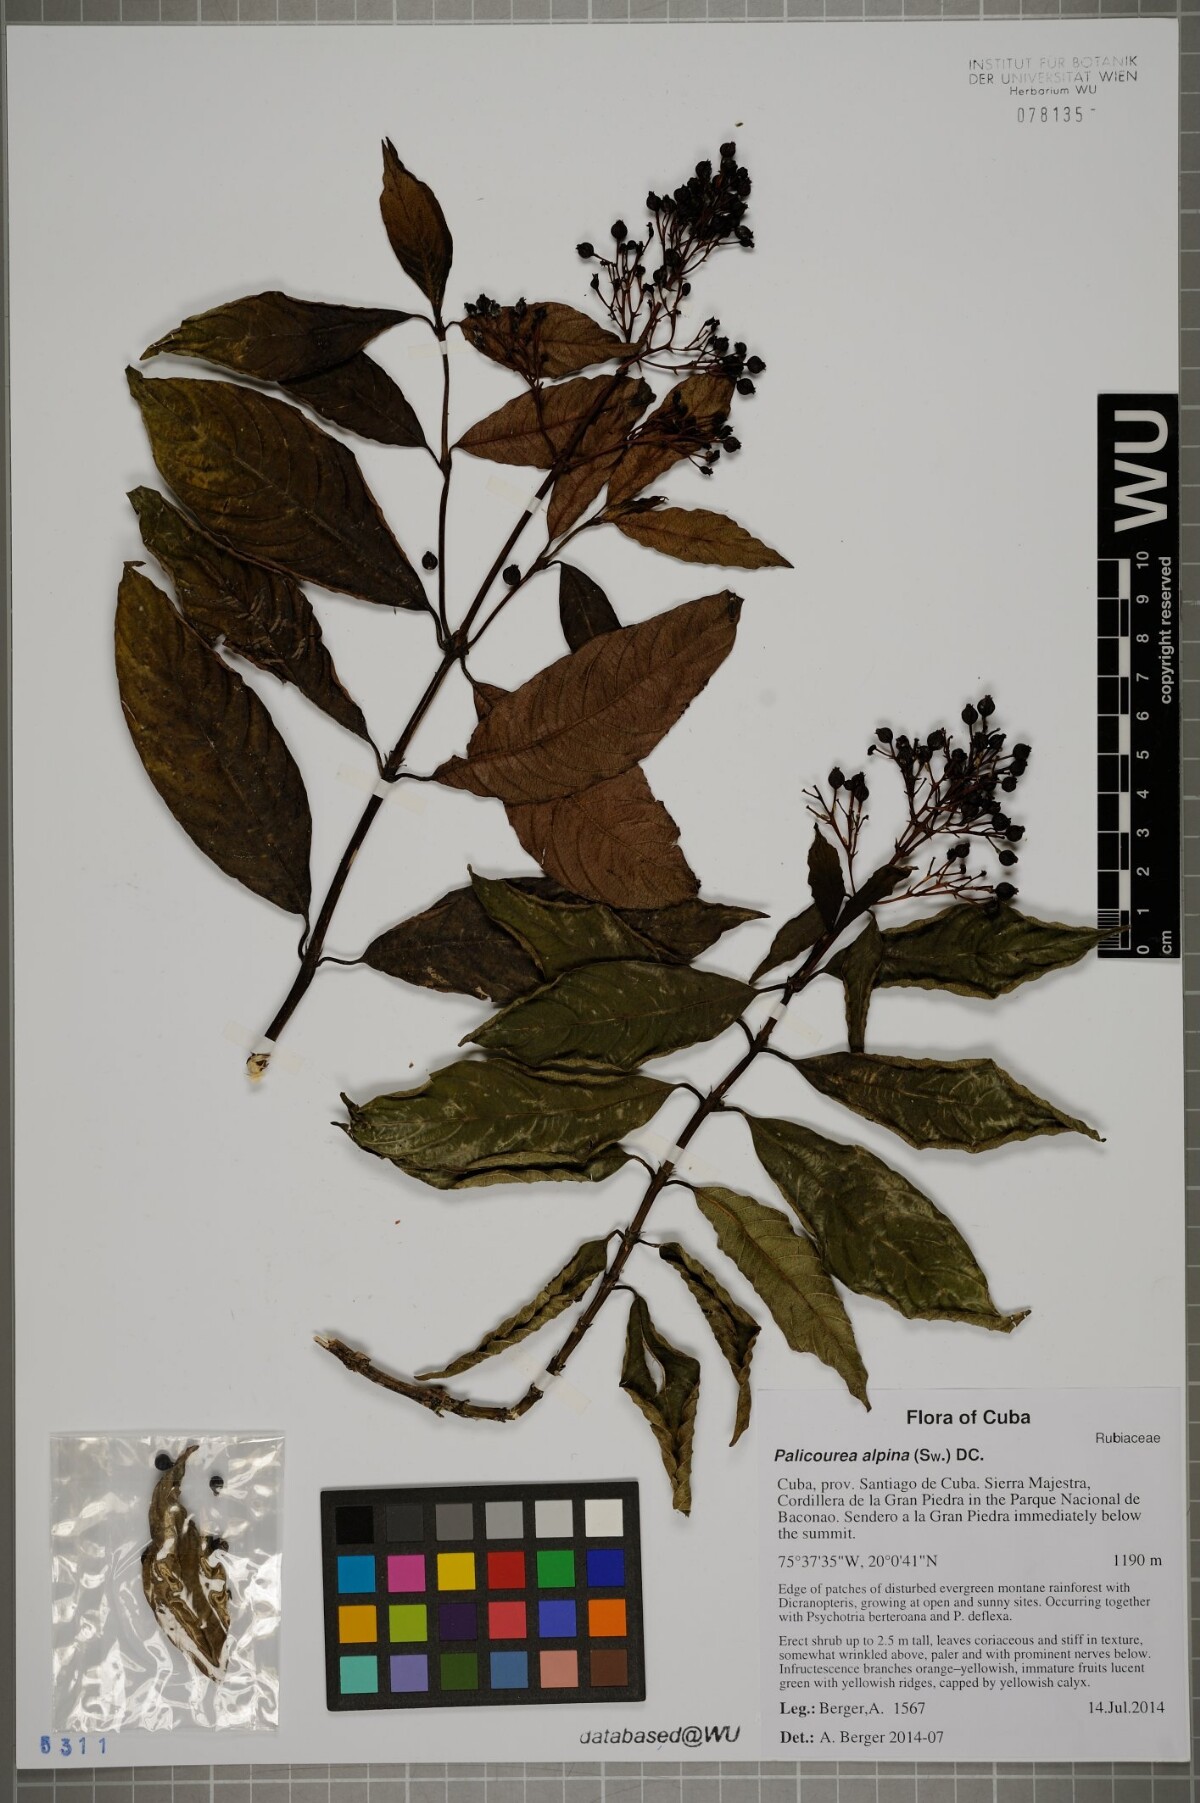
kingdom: Plantae
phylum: Tracheophyta
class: Magnoliopsida
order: Gentianales
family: Rubiaceae
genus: Palicourea
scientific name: Palicourea alpina
